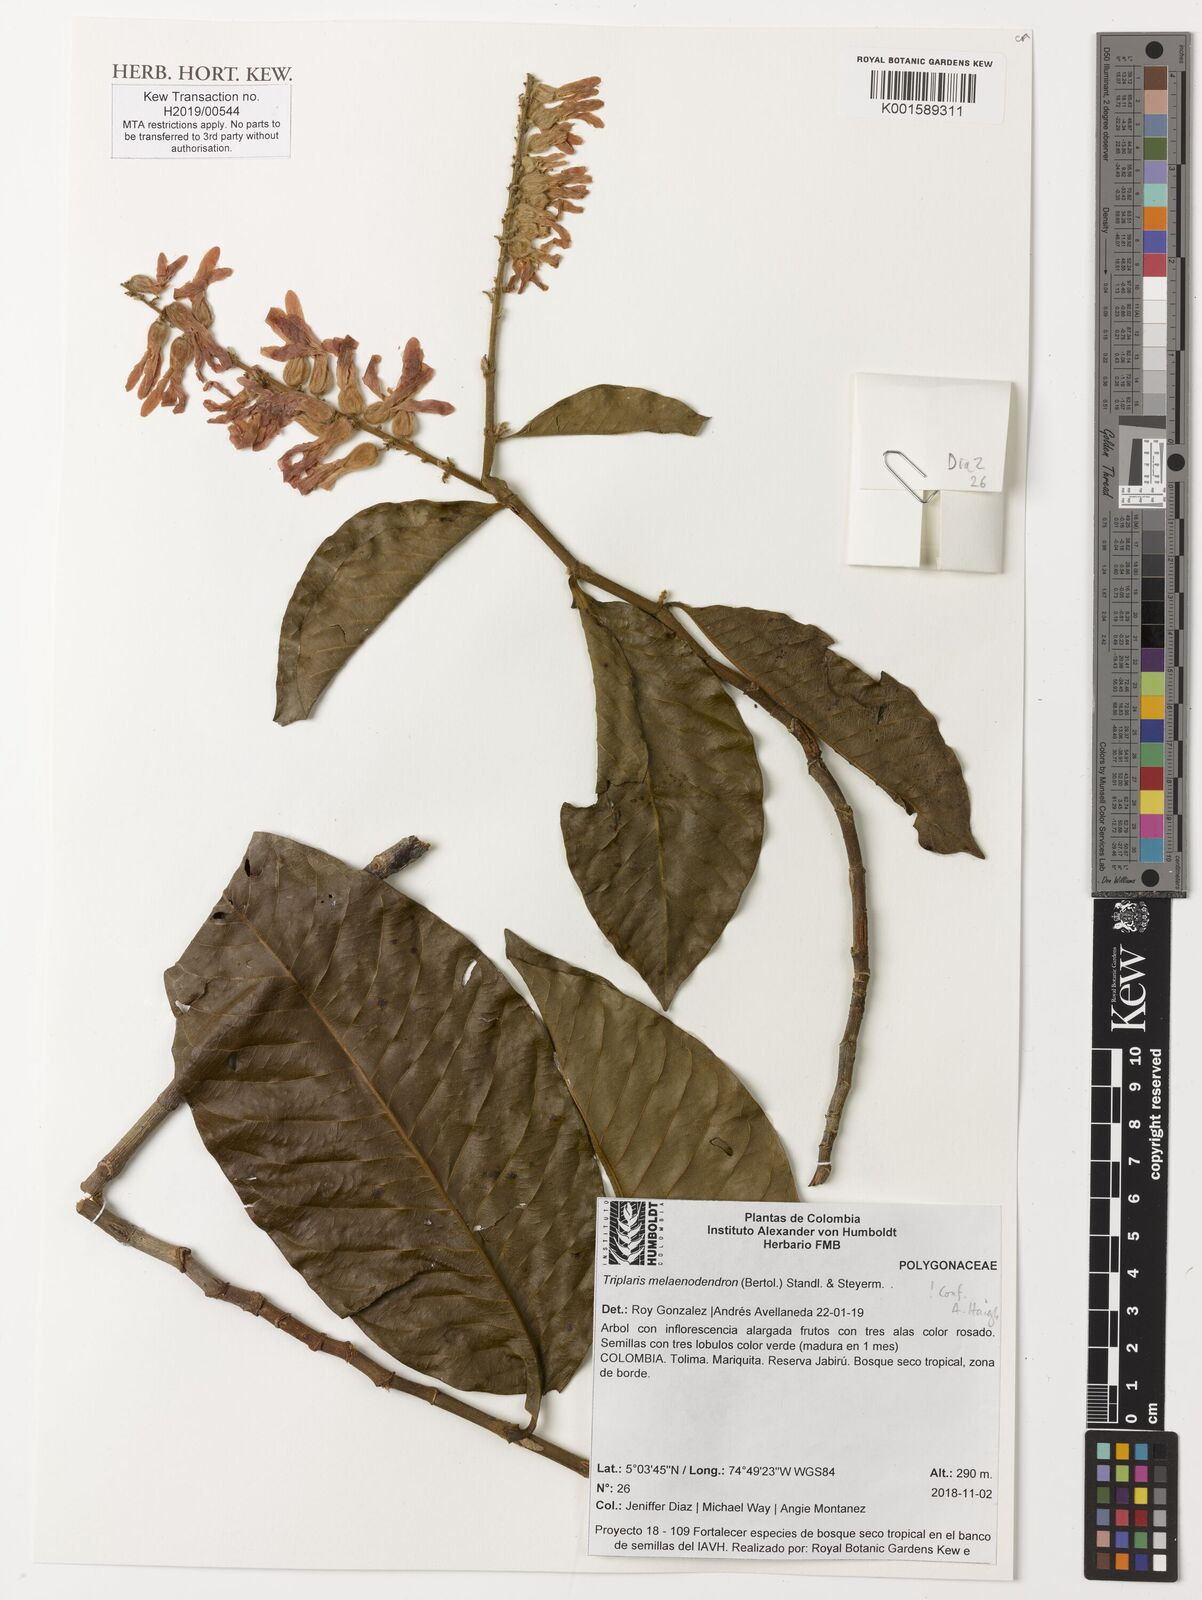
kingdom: Plantae
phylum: Tracheophyta
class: Magnoliopsida
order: Caryophyllales
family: Polygonaceae
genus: Triplaris
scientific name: Triplaris melaenodendron
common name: Long john
